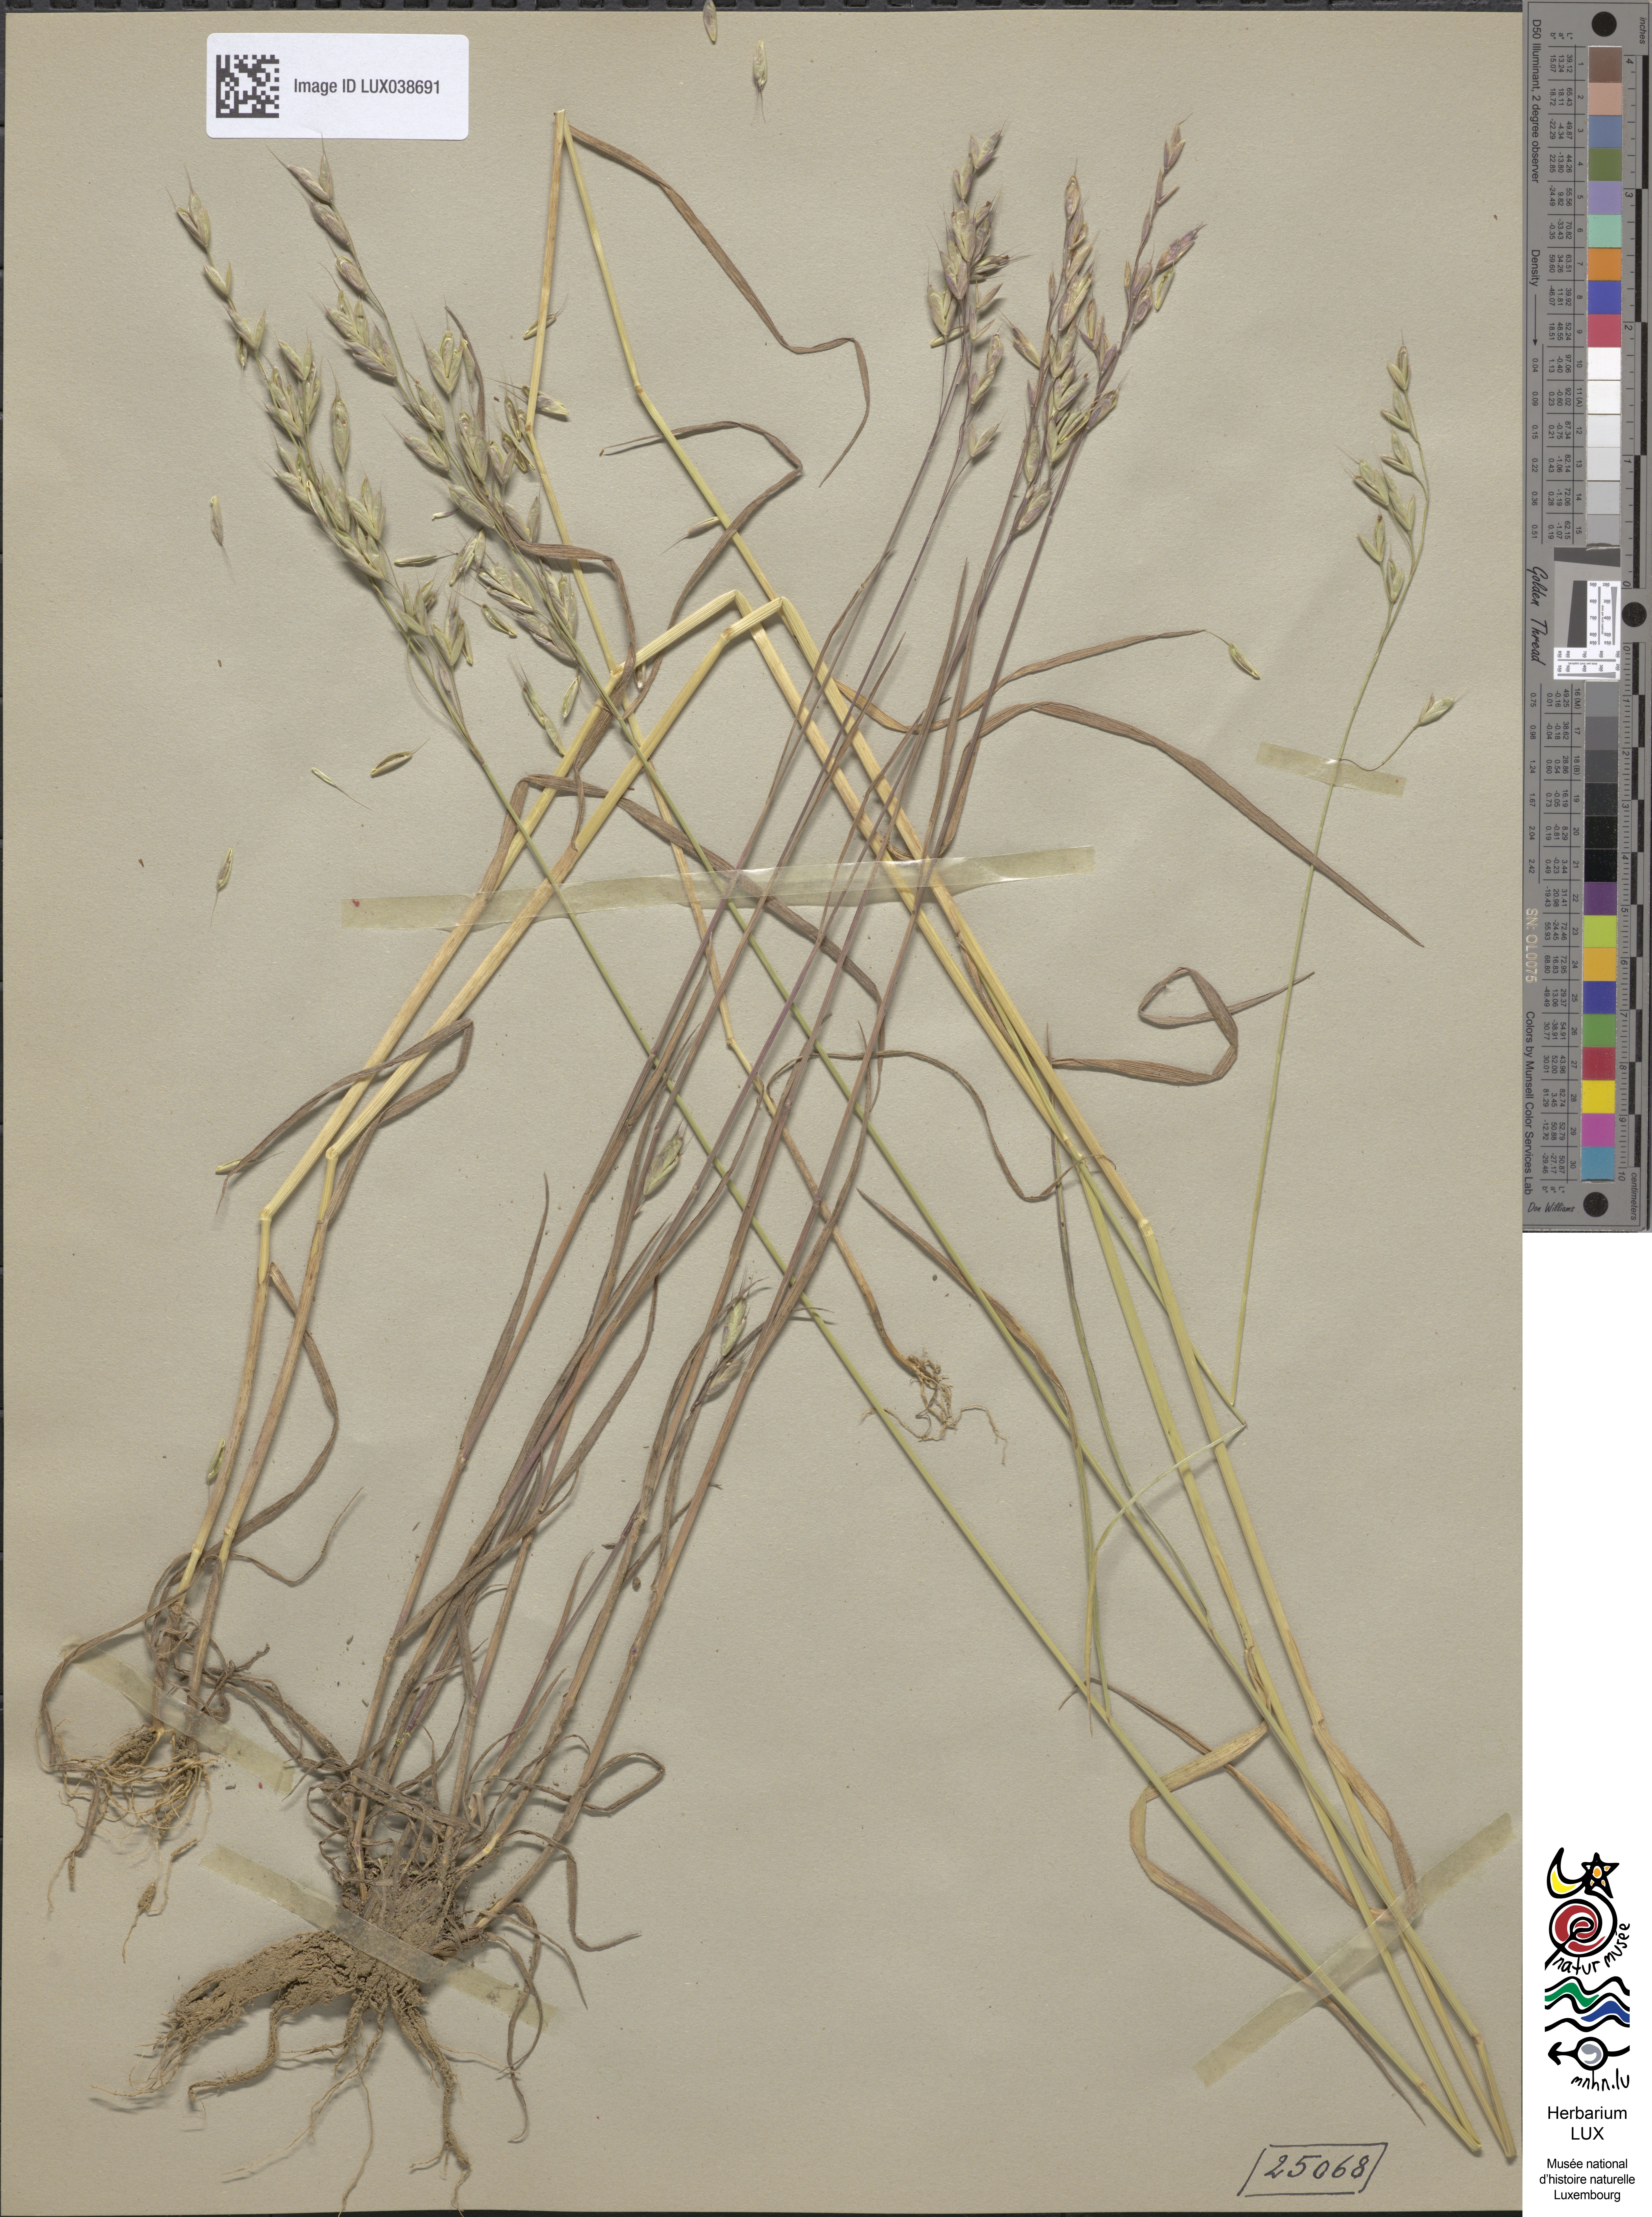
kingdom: Plantae
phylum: Tracheophyta
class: Liliopsida
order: Poales
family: Poaceae
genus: Bromus
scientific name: Bromus commutatus
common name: Meadow brome
